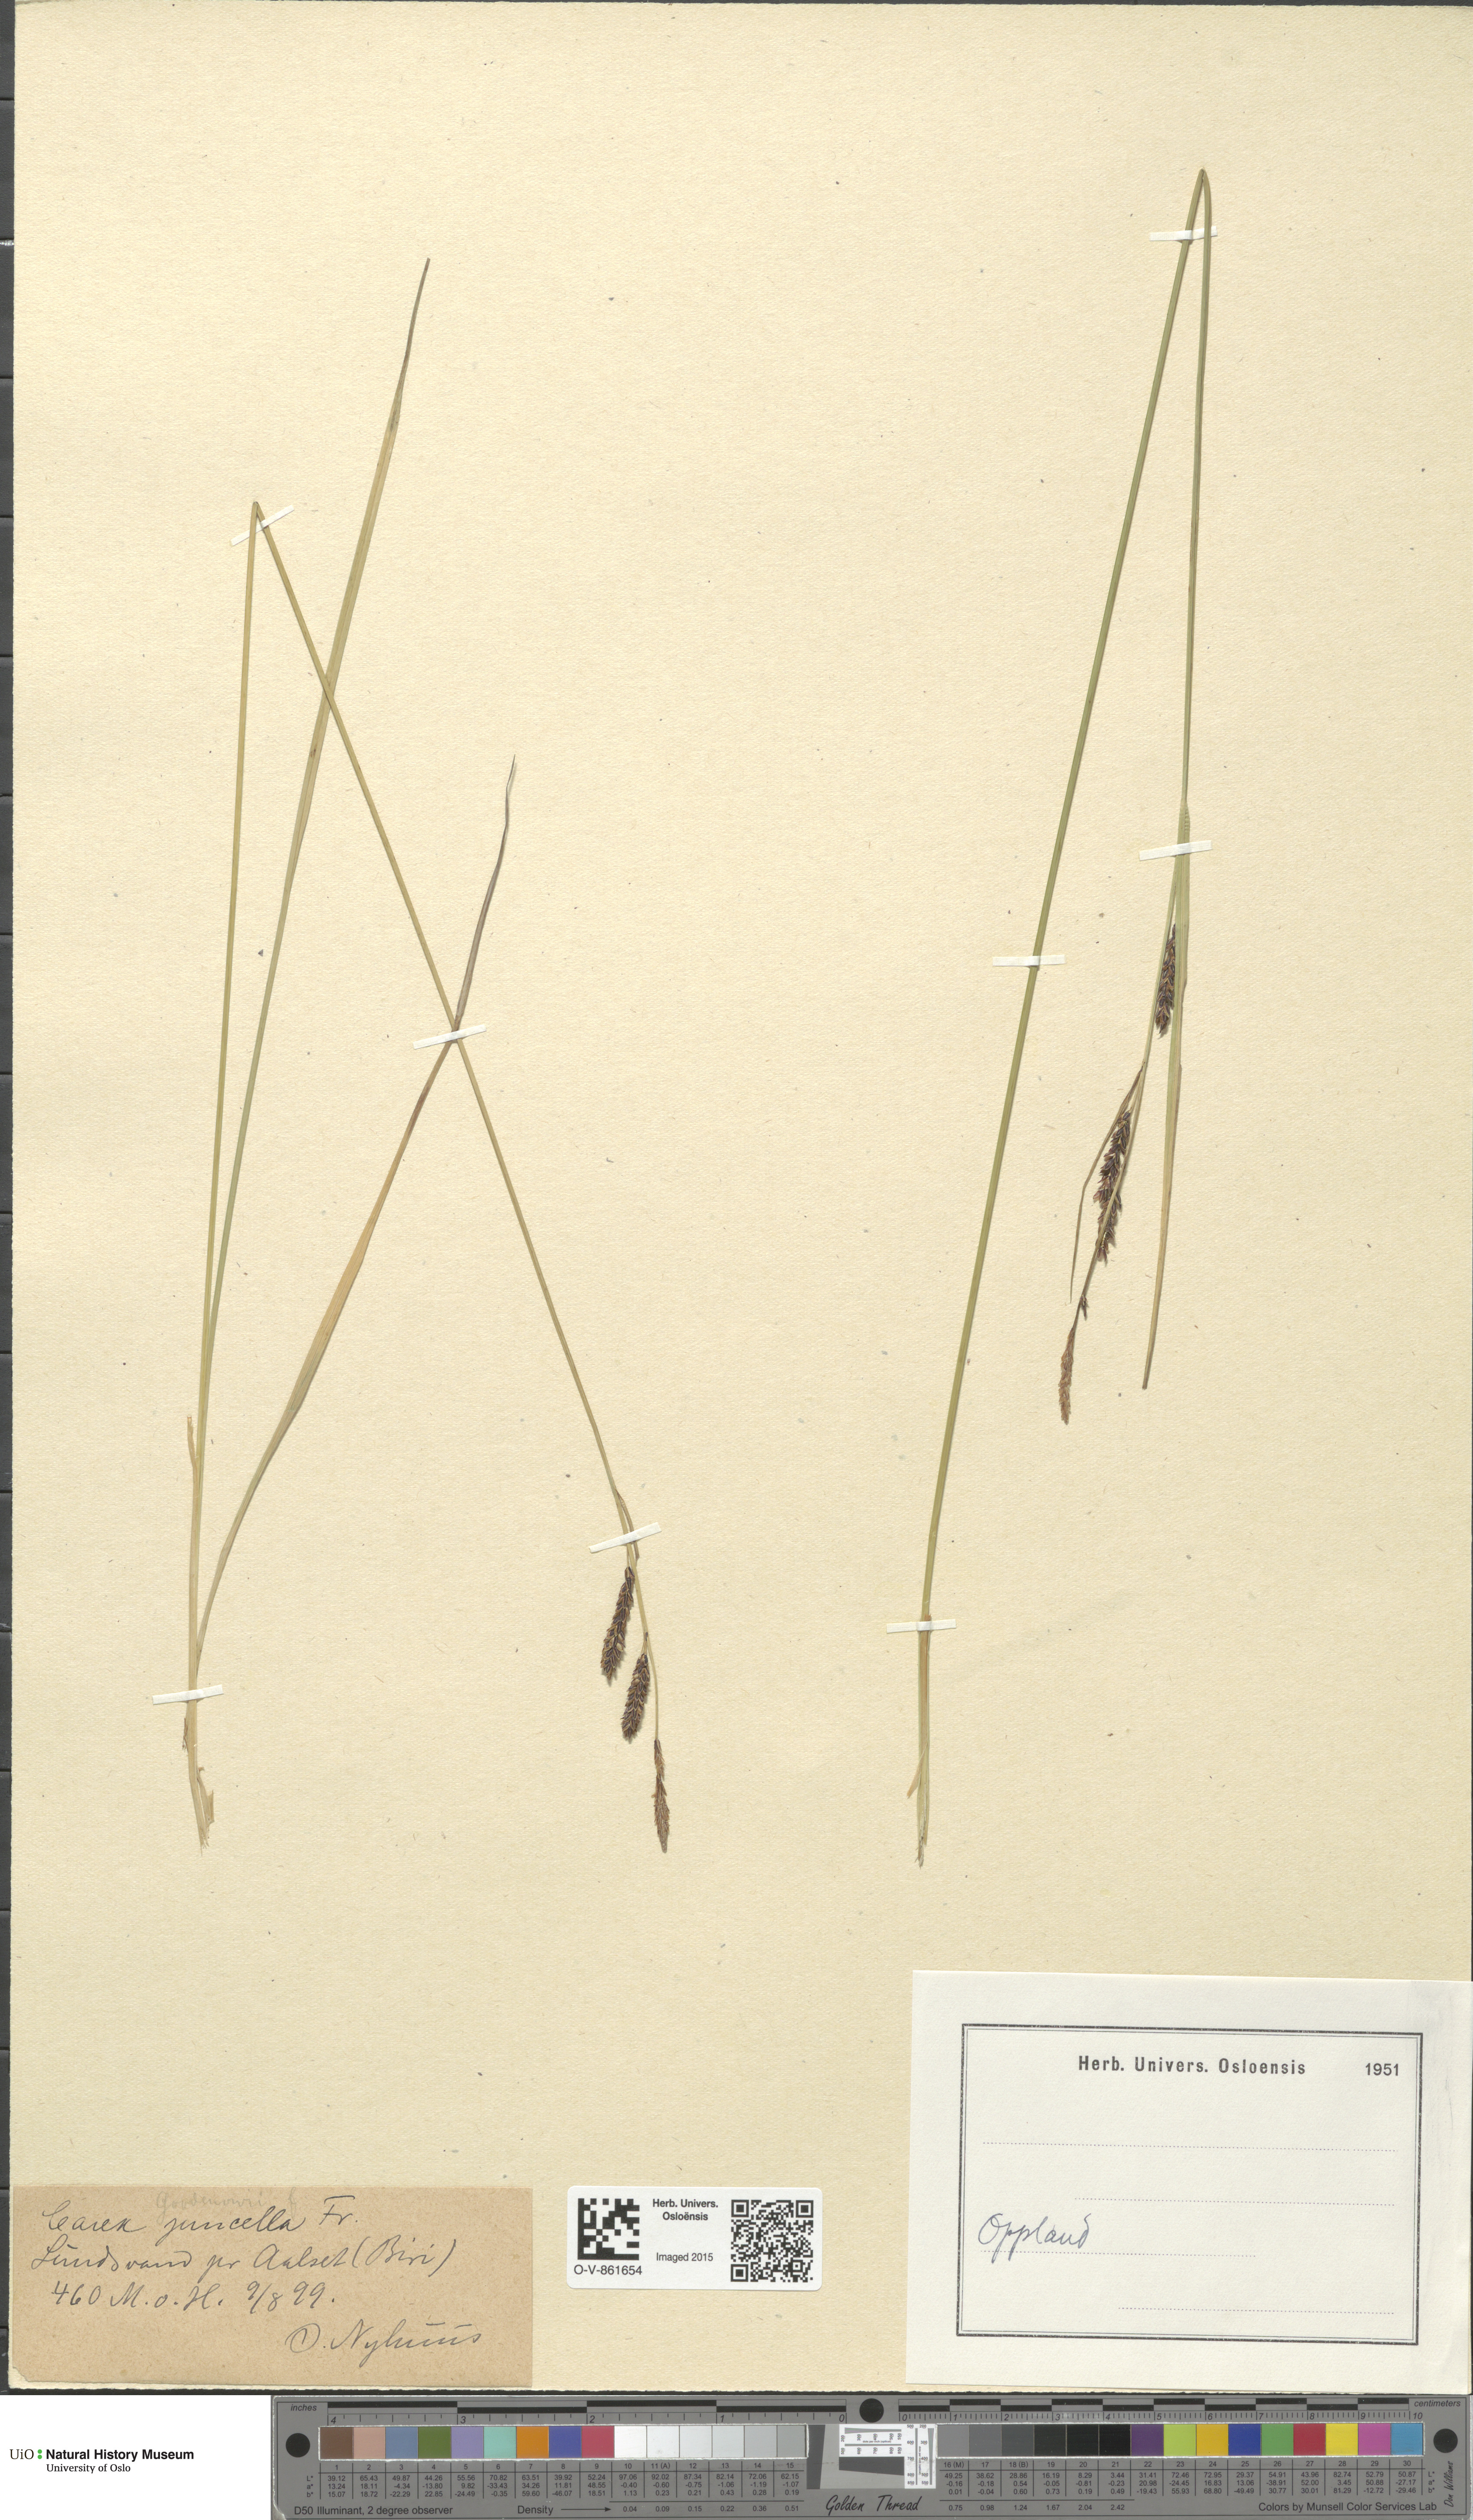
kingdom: Plantae
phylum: Tracheophyta
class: Liliopsida
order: Poales
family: Cyperaceae
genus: Carex
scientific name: Carex nigra
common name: Common sedge
